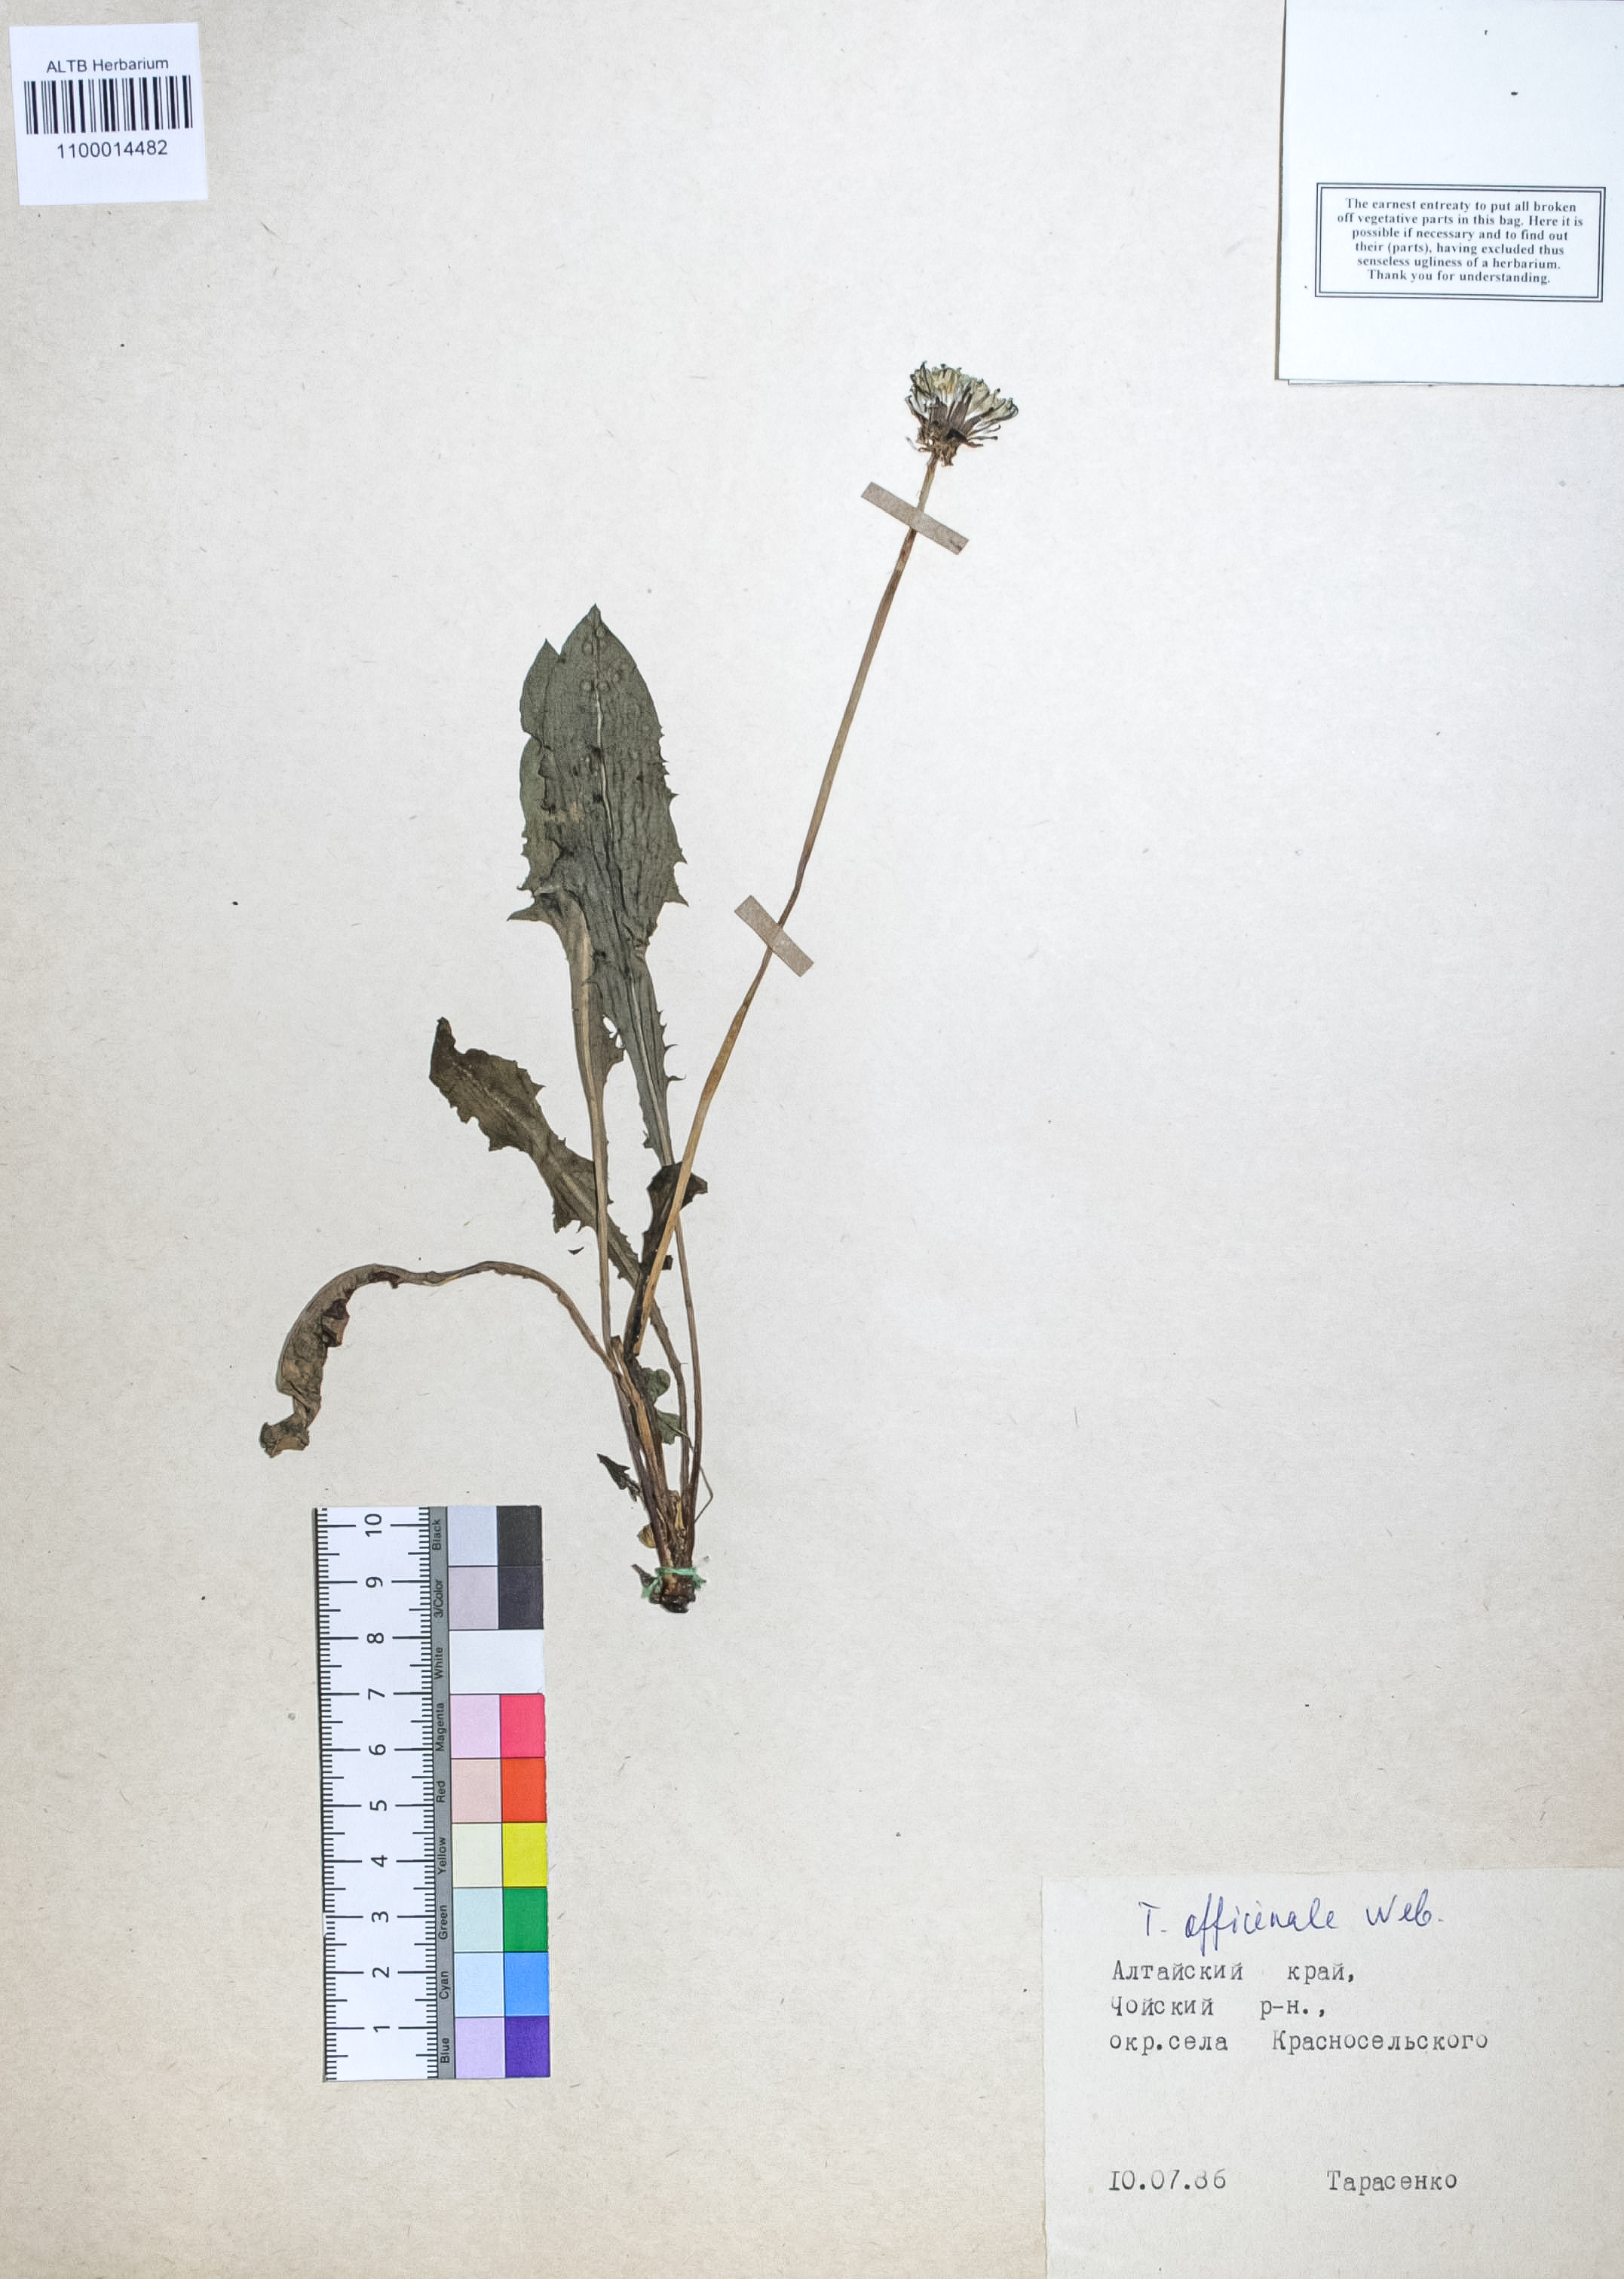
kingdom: Plantae
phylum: Tracheophyta
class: Magnoliopsida
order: Asterales
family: Asteraceae
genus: Taraxacum
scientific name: Taraxacum officinale
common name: Common dandelion
